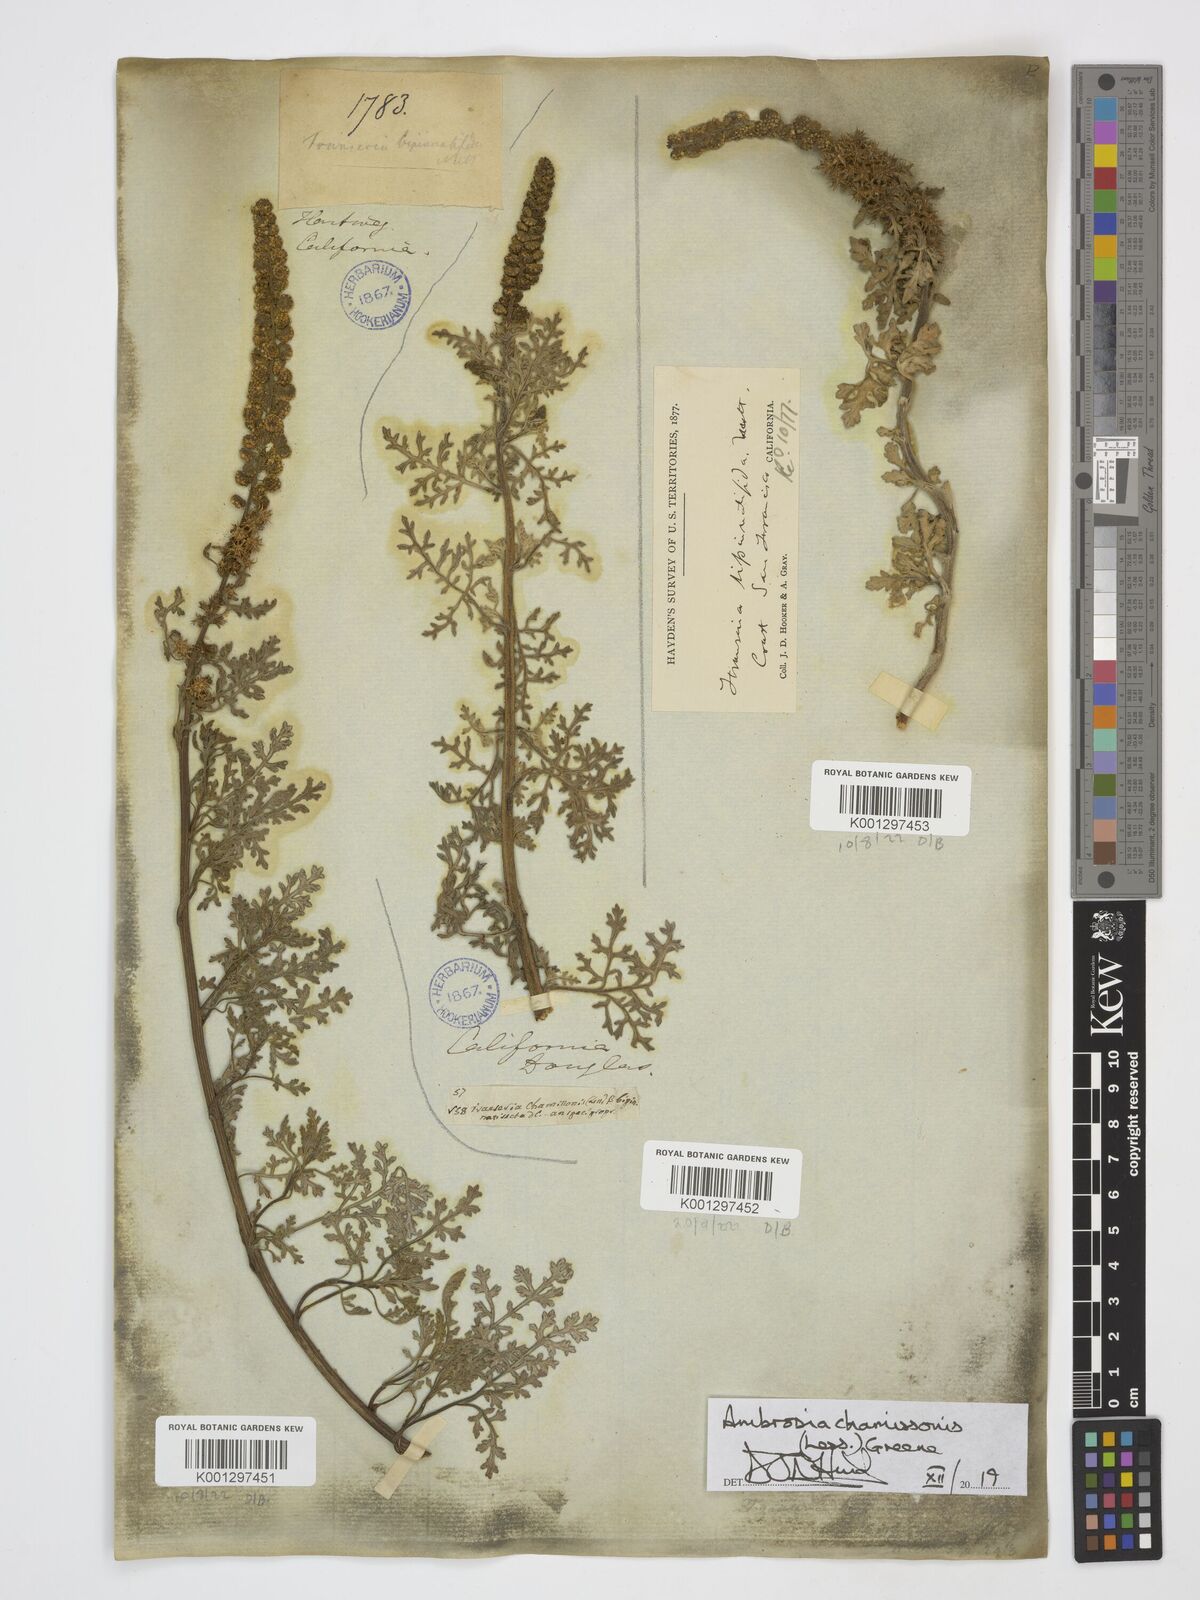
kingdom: Plantae
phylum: Tracheophyta
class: Magnoliopsida
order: Asterales
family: Asteraceae
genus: Ambrosia
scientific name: Ambrosia chamissonis
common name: Beachbur
